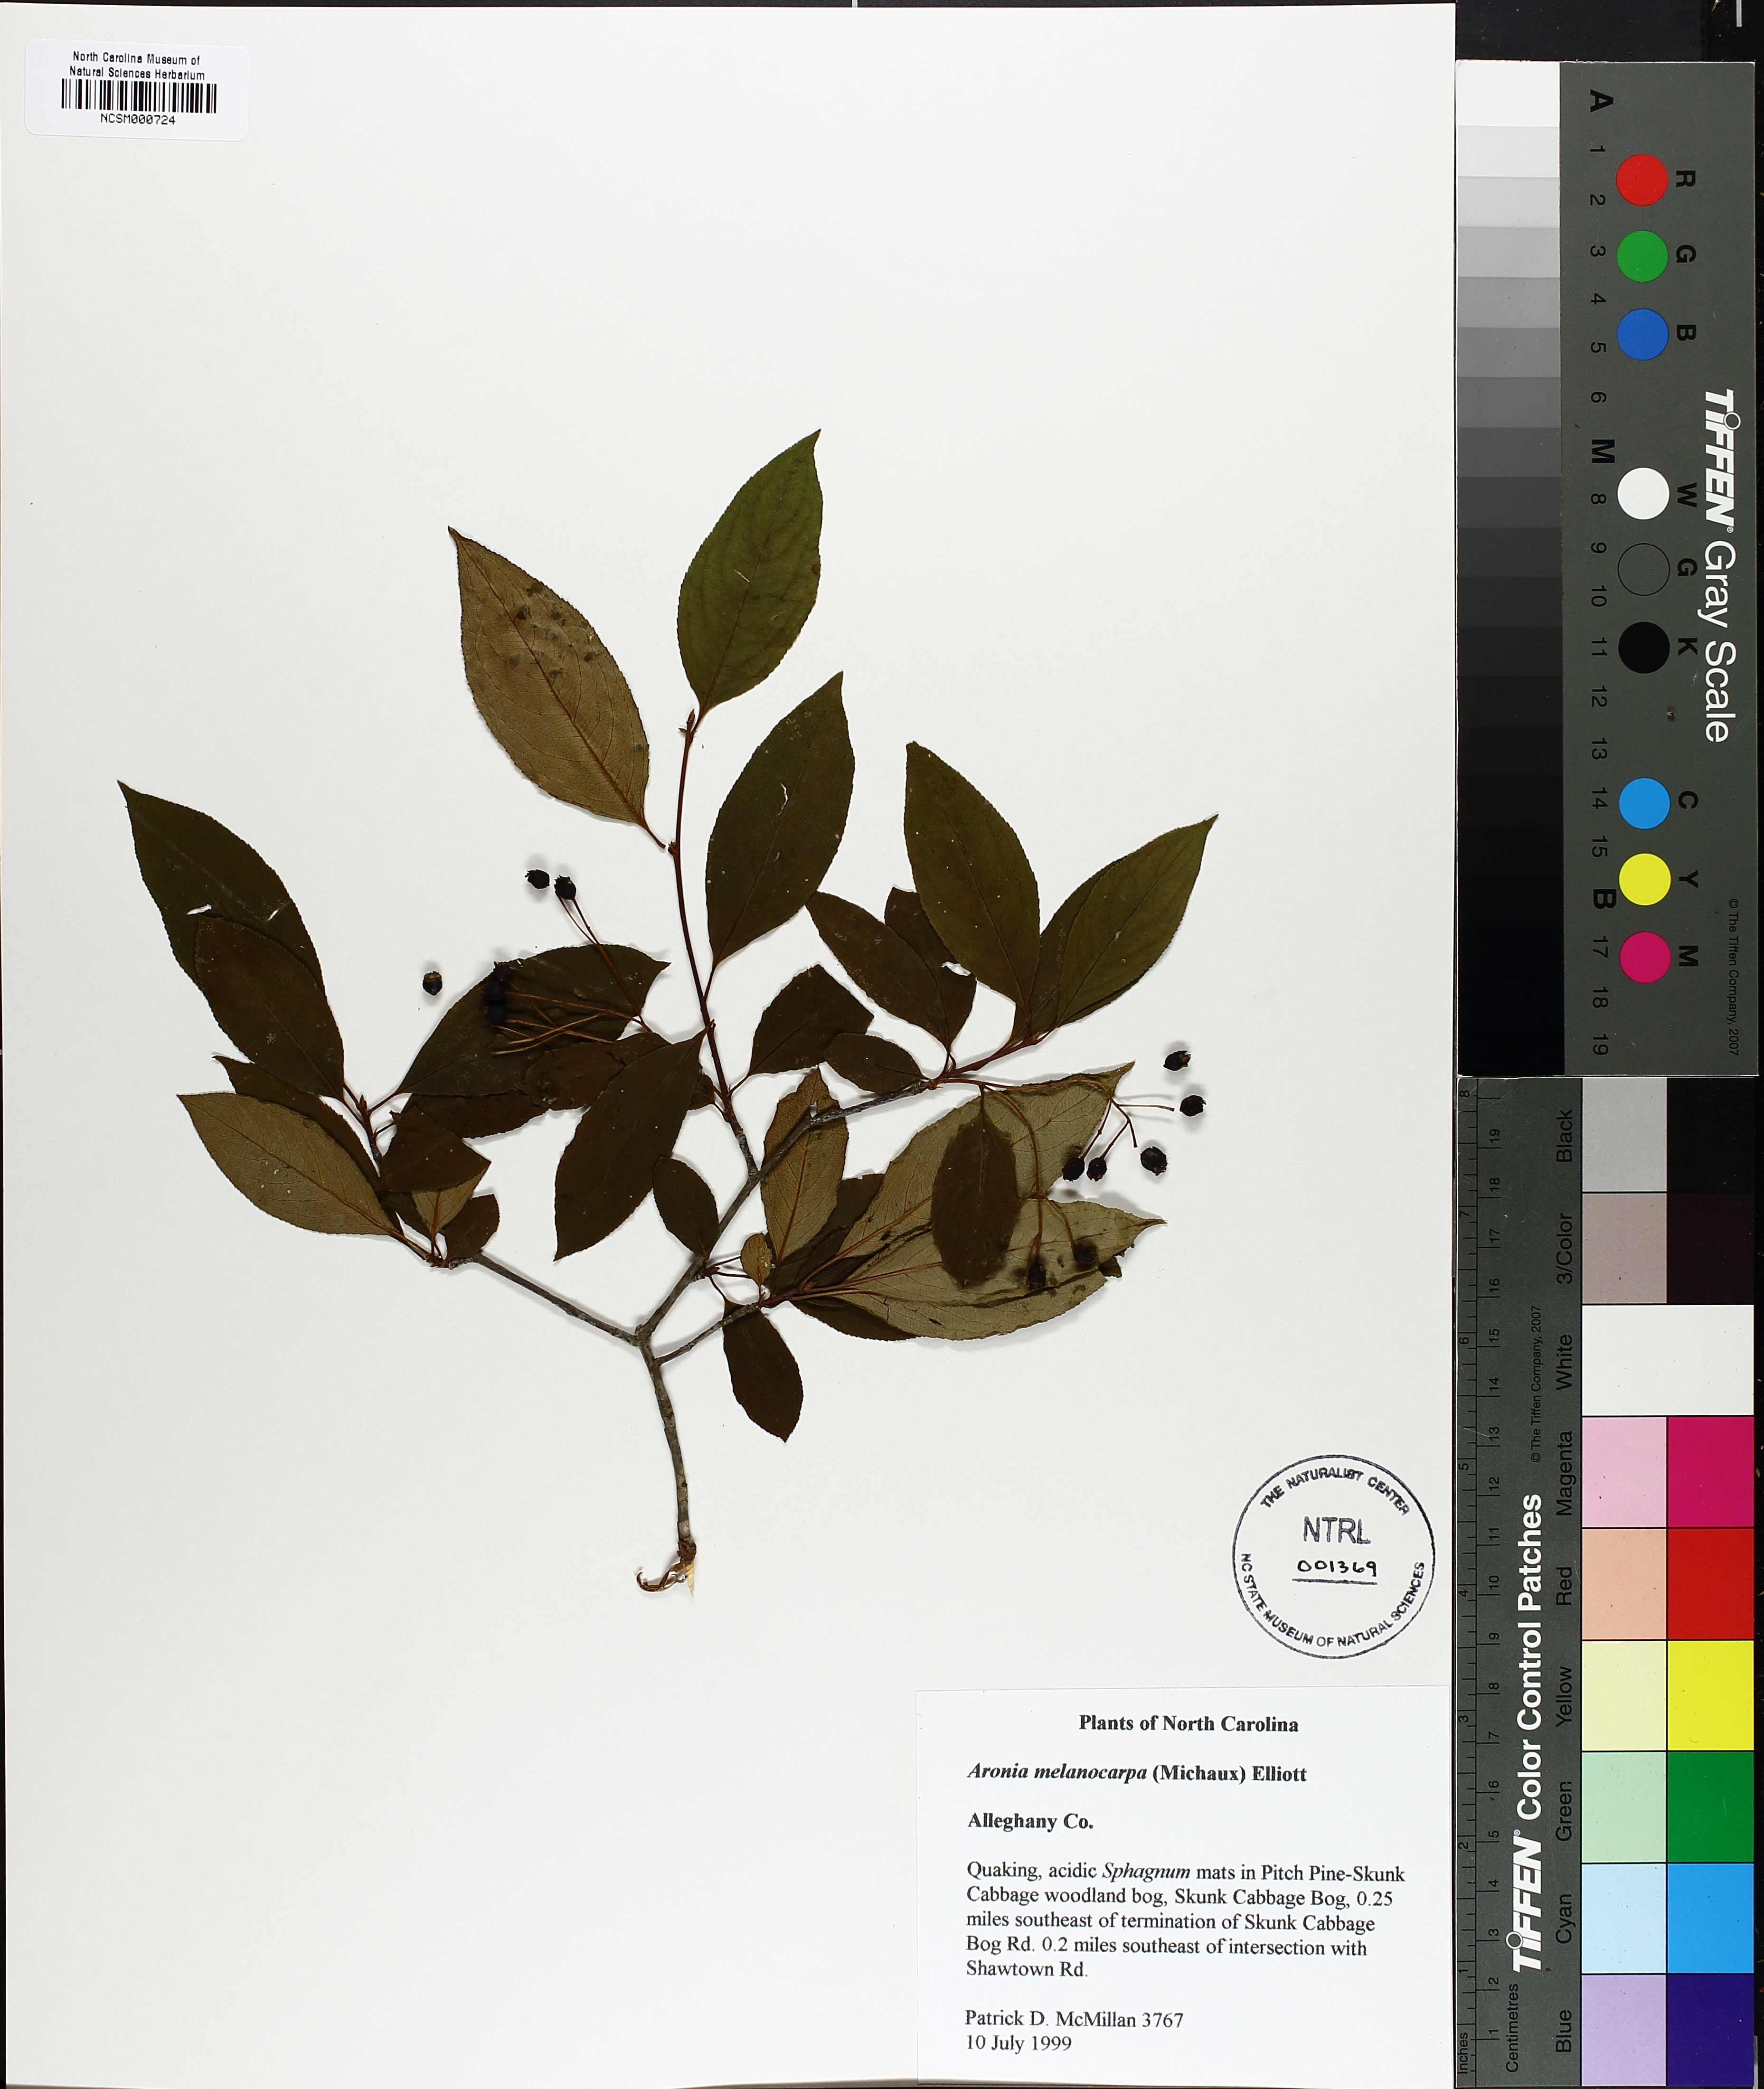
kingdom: Plantae
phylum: Tracheophyta
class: Magnoliopsida
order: Rosales
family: Rosaceae
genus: Aronia
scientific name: Aronia melanocarpa
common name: Black chokeberry
